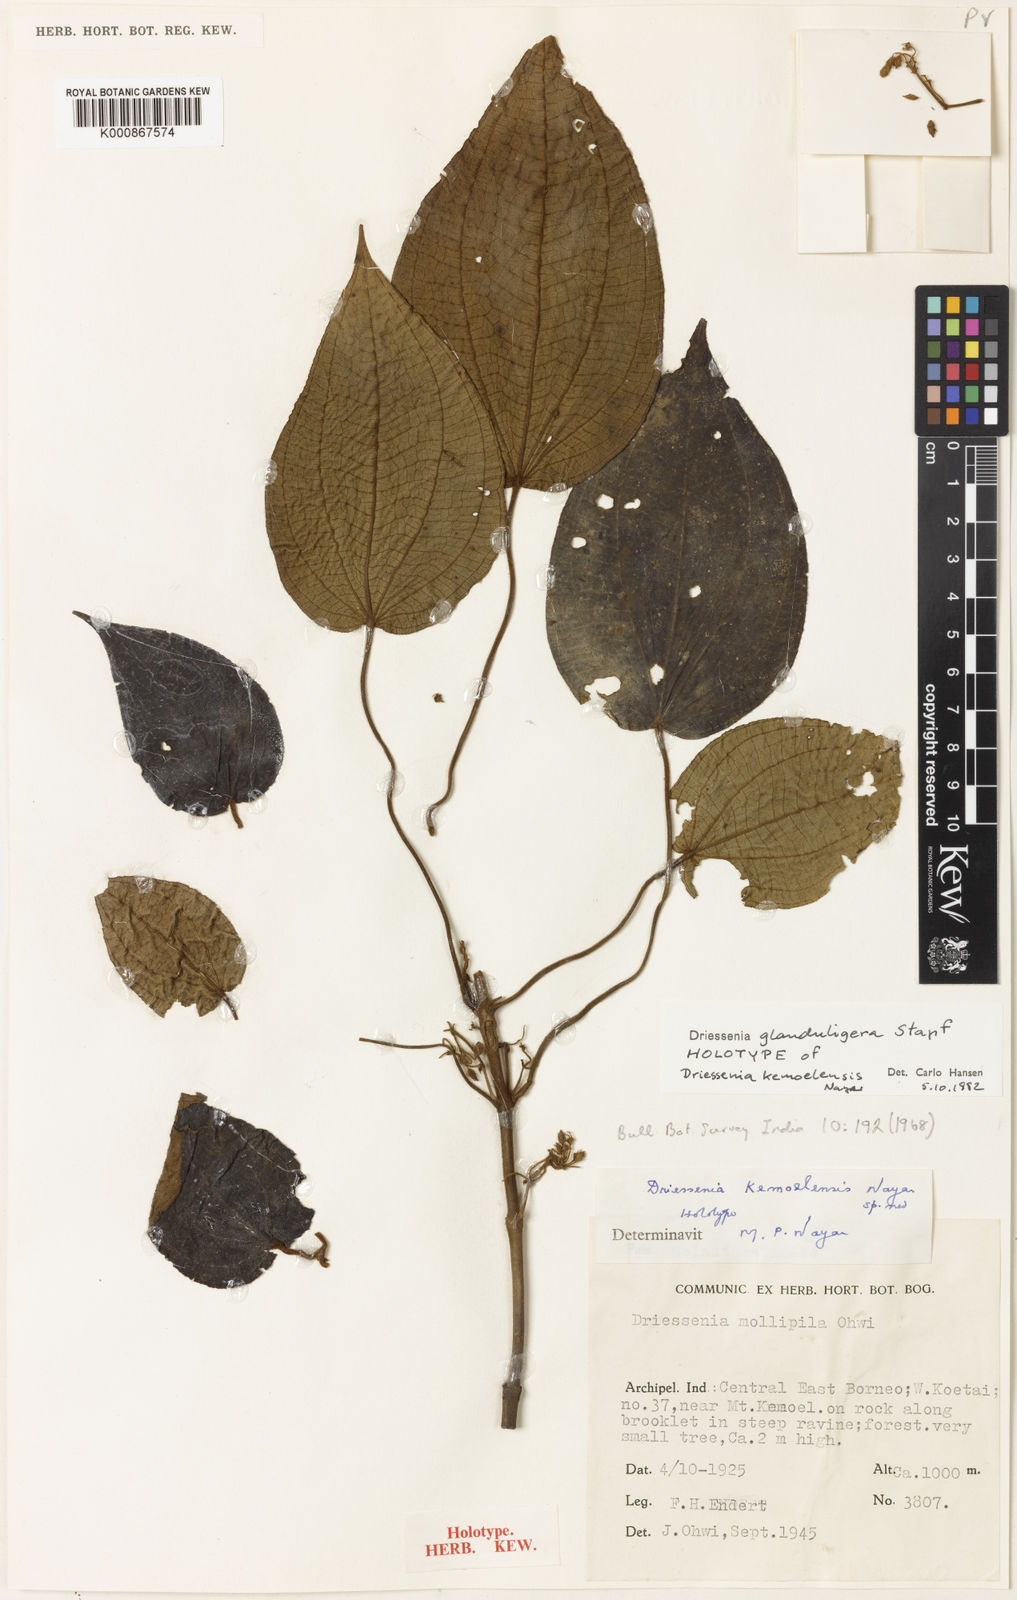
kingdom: Plantae
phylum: Tracheophyta
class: Magnoliopsida
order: Myrtales
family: Melastomataceae
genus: Driessenia
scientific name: Driessenia glanduligera
